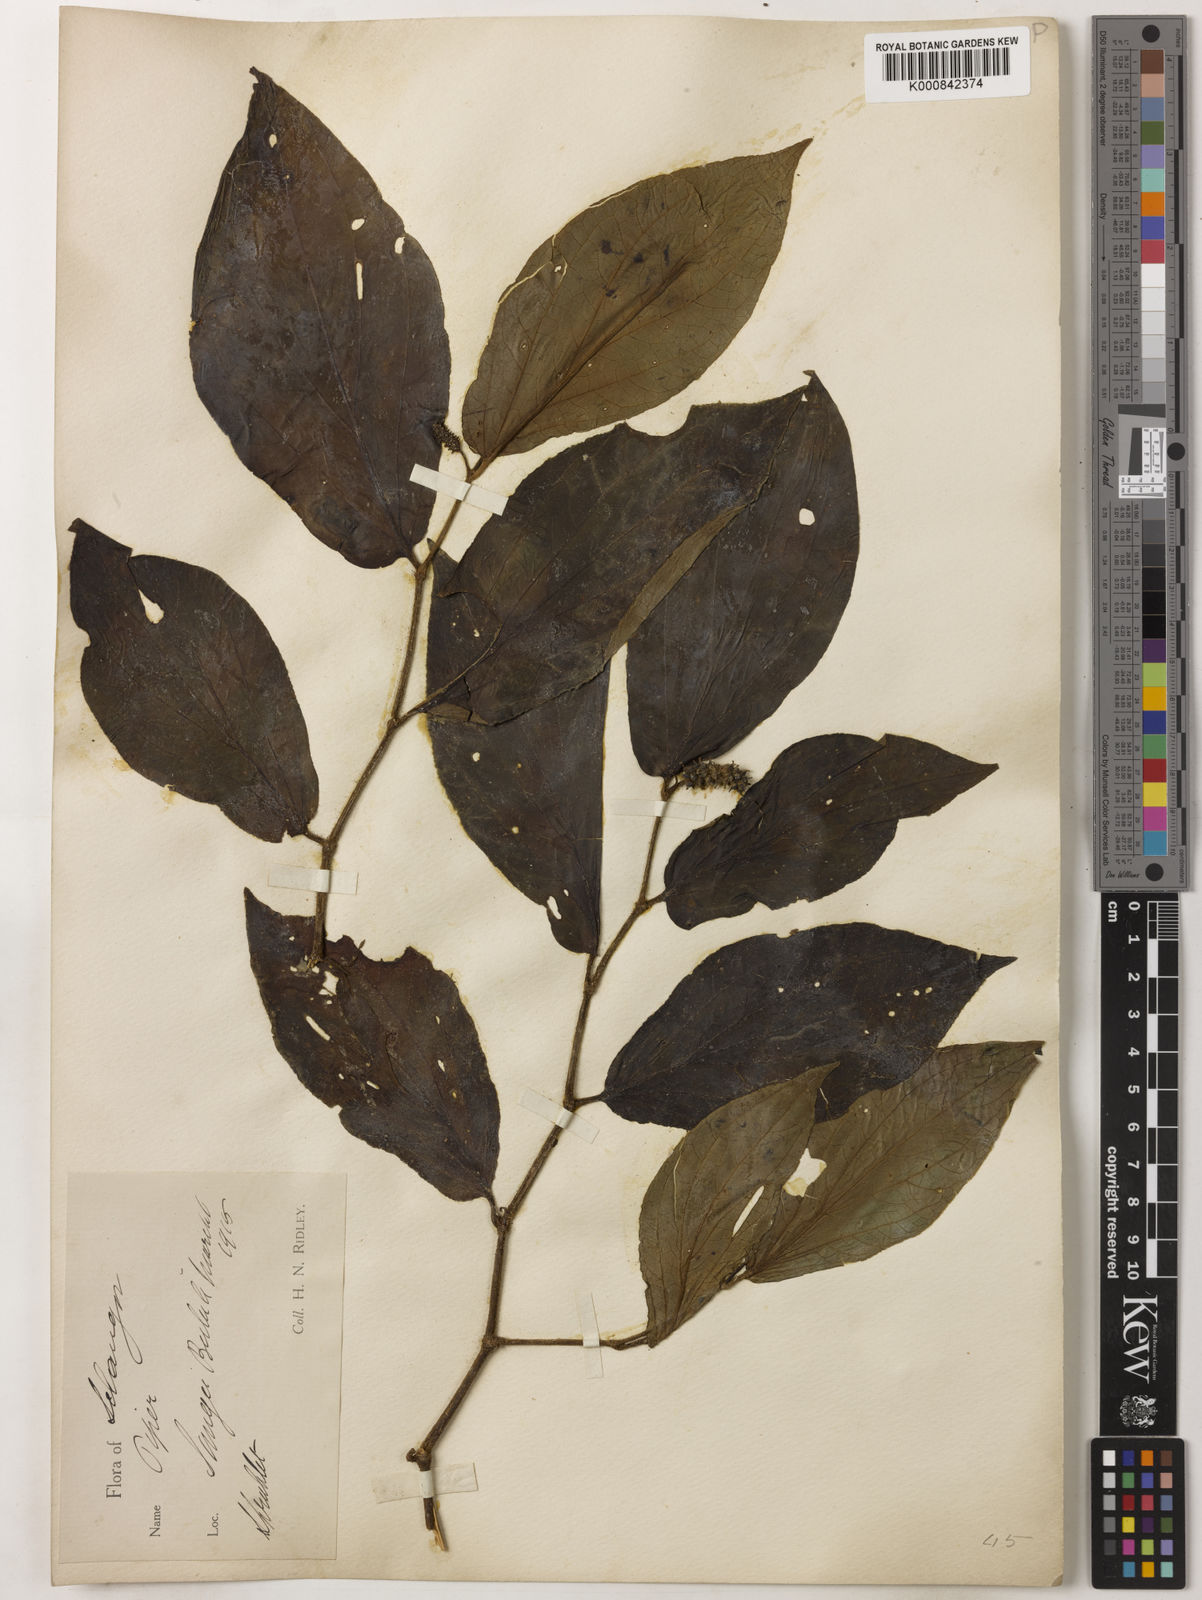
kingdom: Plantae
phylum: Tracheophyta
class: Magnoliopsida
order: Piperales
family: Piperaceae
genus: Piper
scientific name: Piper rostratum
